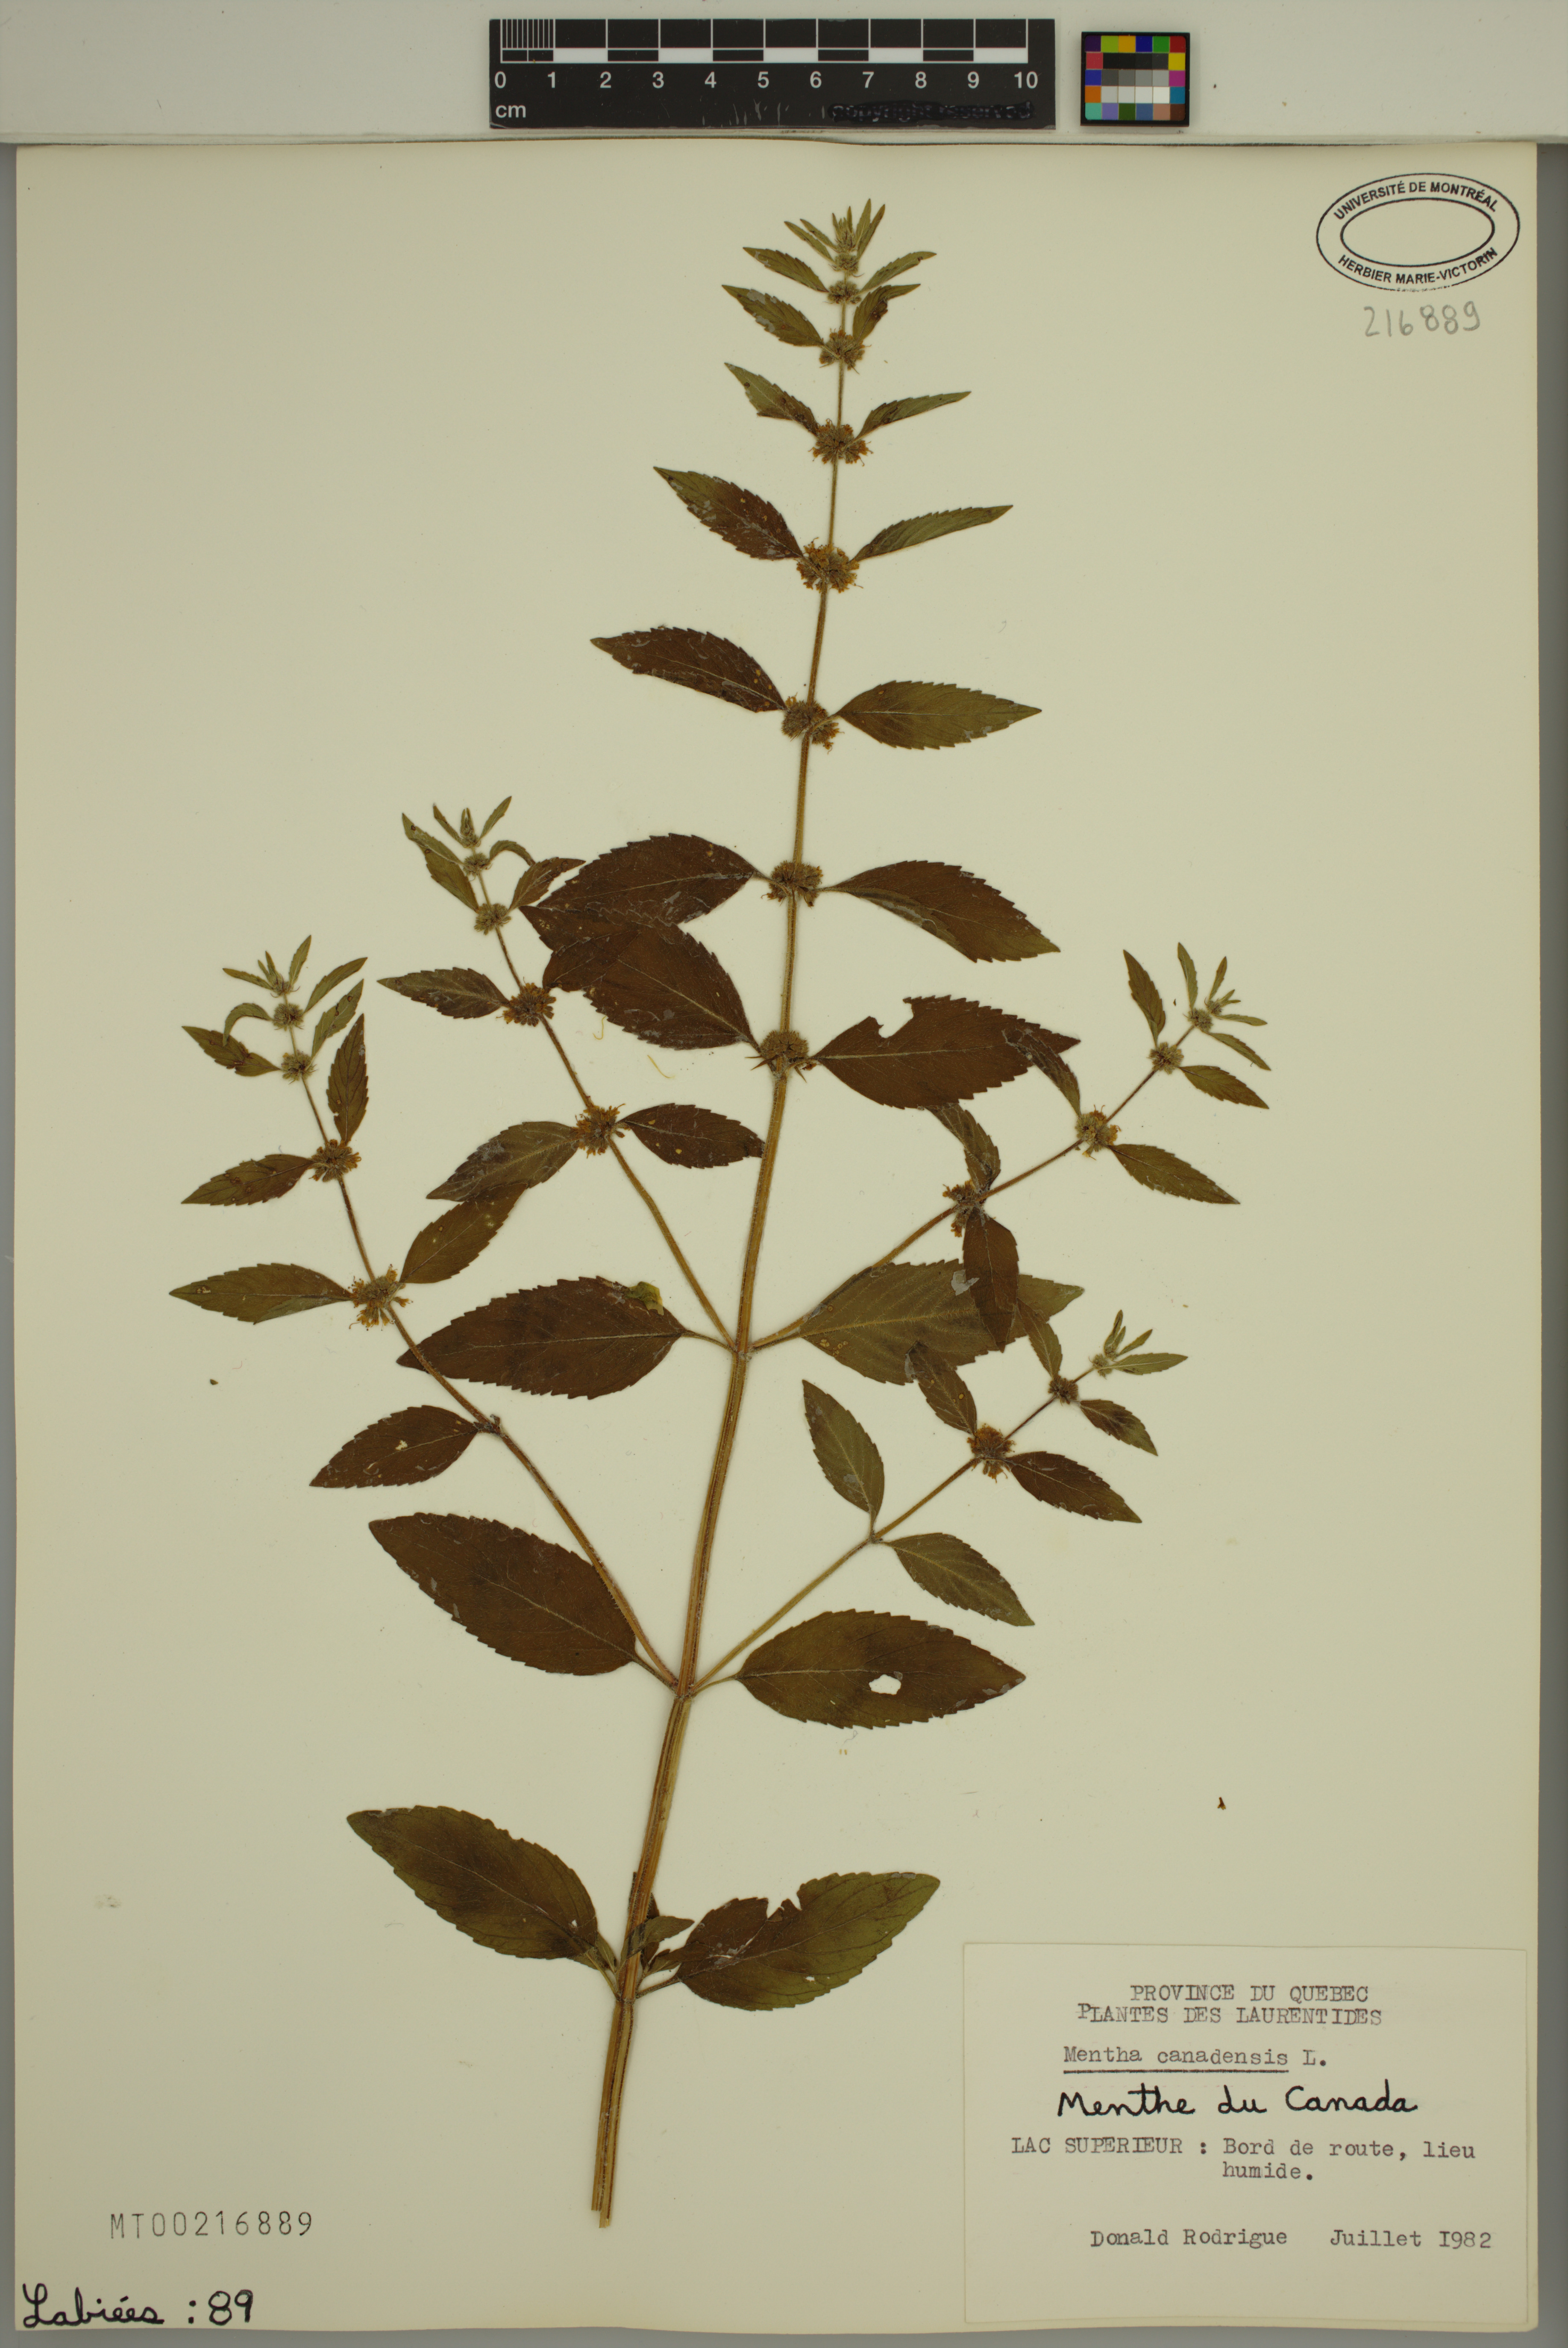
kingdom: Plantae
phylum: Tracheophyta
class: Magnoliopsida
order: Lamiales
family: Lamiaceae
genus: Mentha
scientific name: Mentha canadensis
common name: American corn mint
